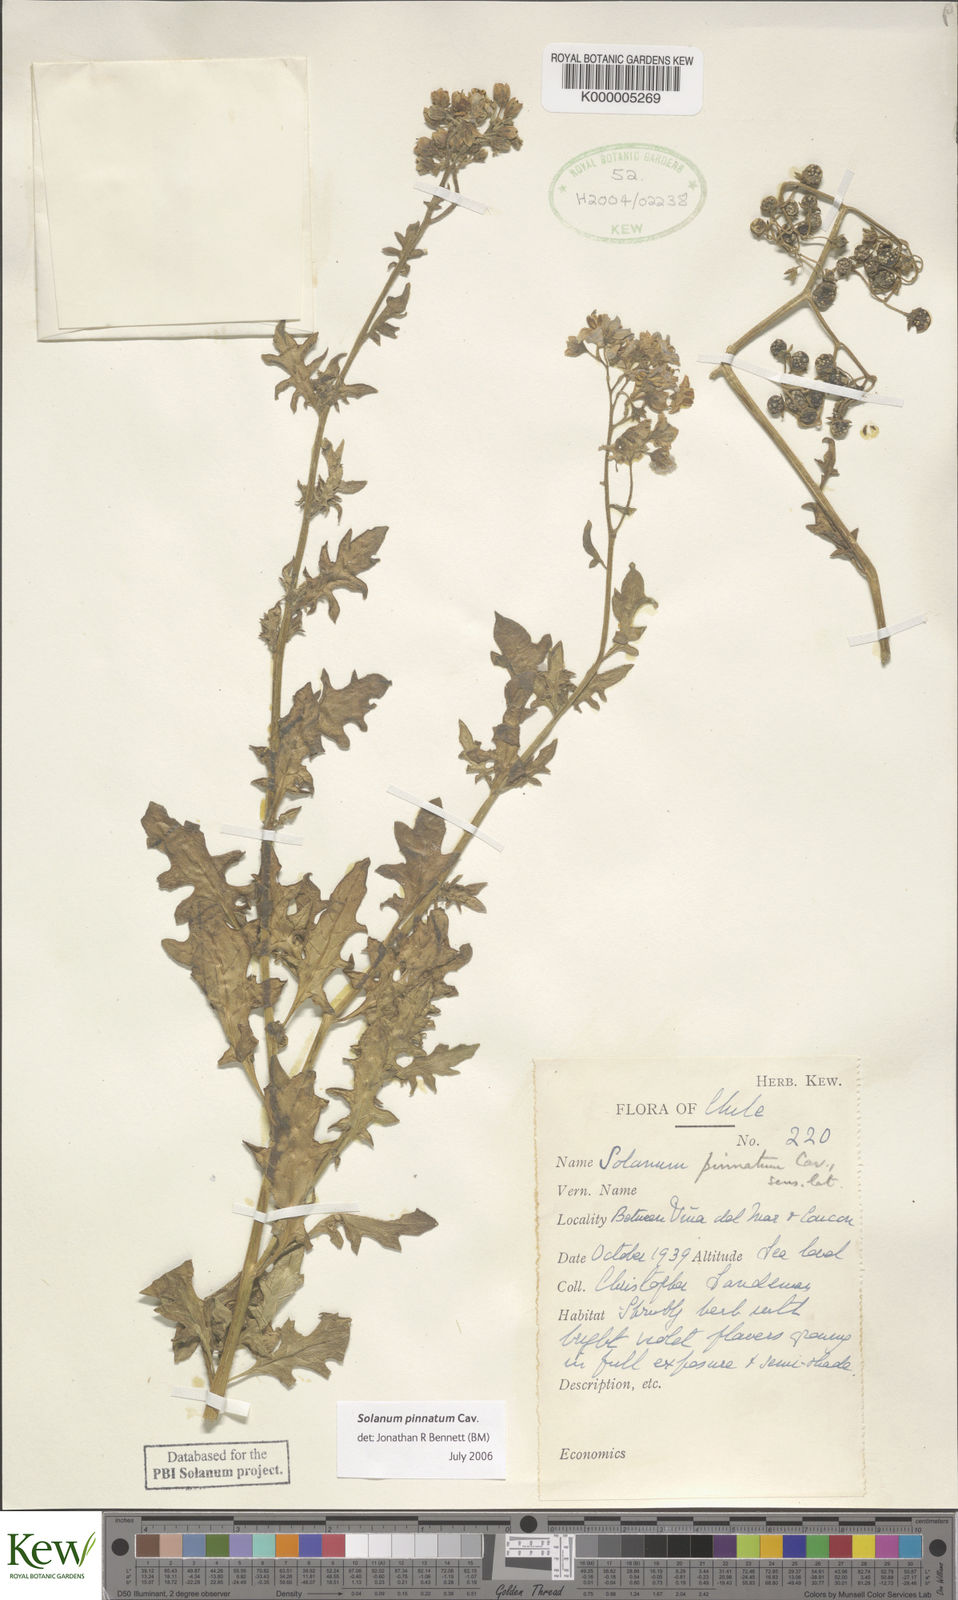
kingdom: Plantae
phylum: Tracheophyta
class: Magnoliopsida
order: Solanales
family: Solanaceae
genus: Solanum
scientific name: Solanum pinnatum
